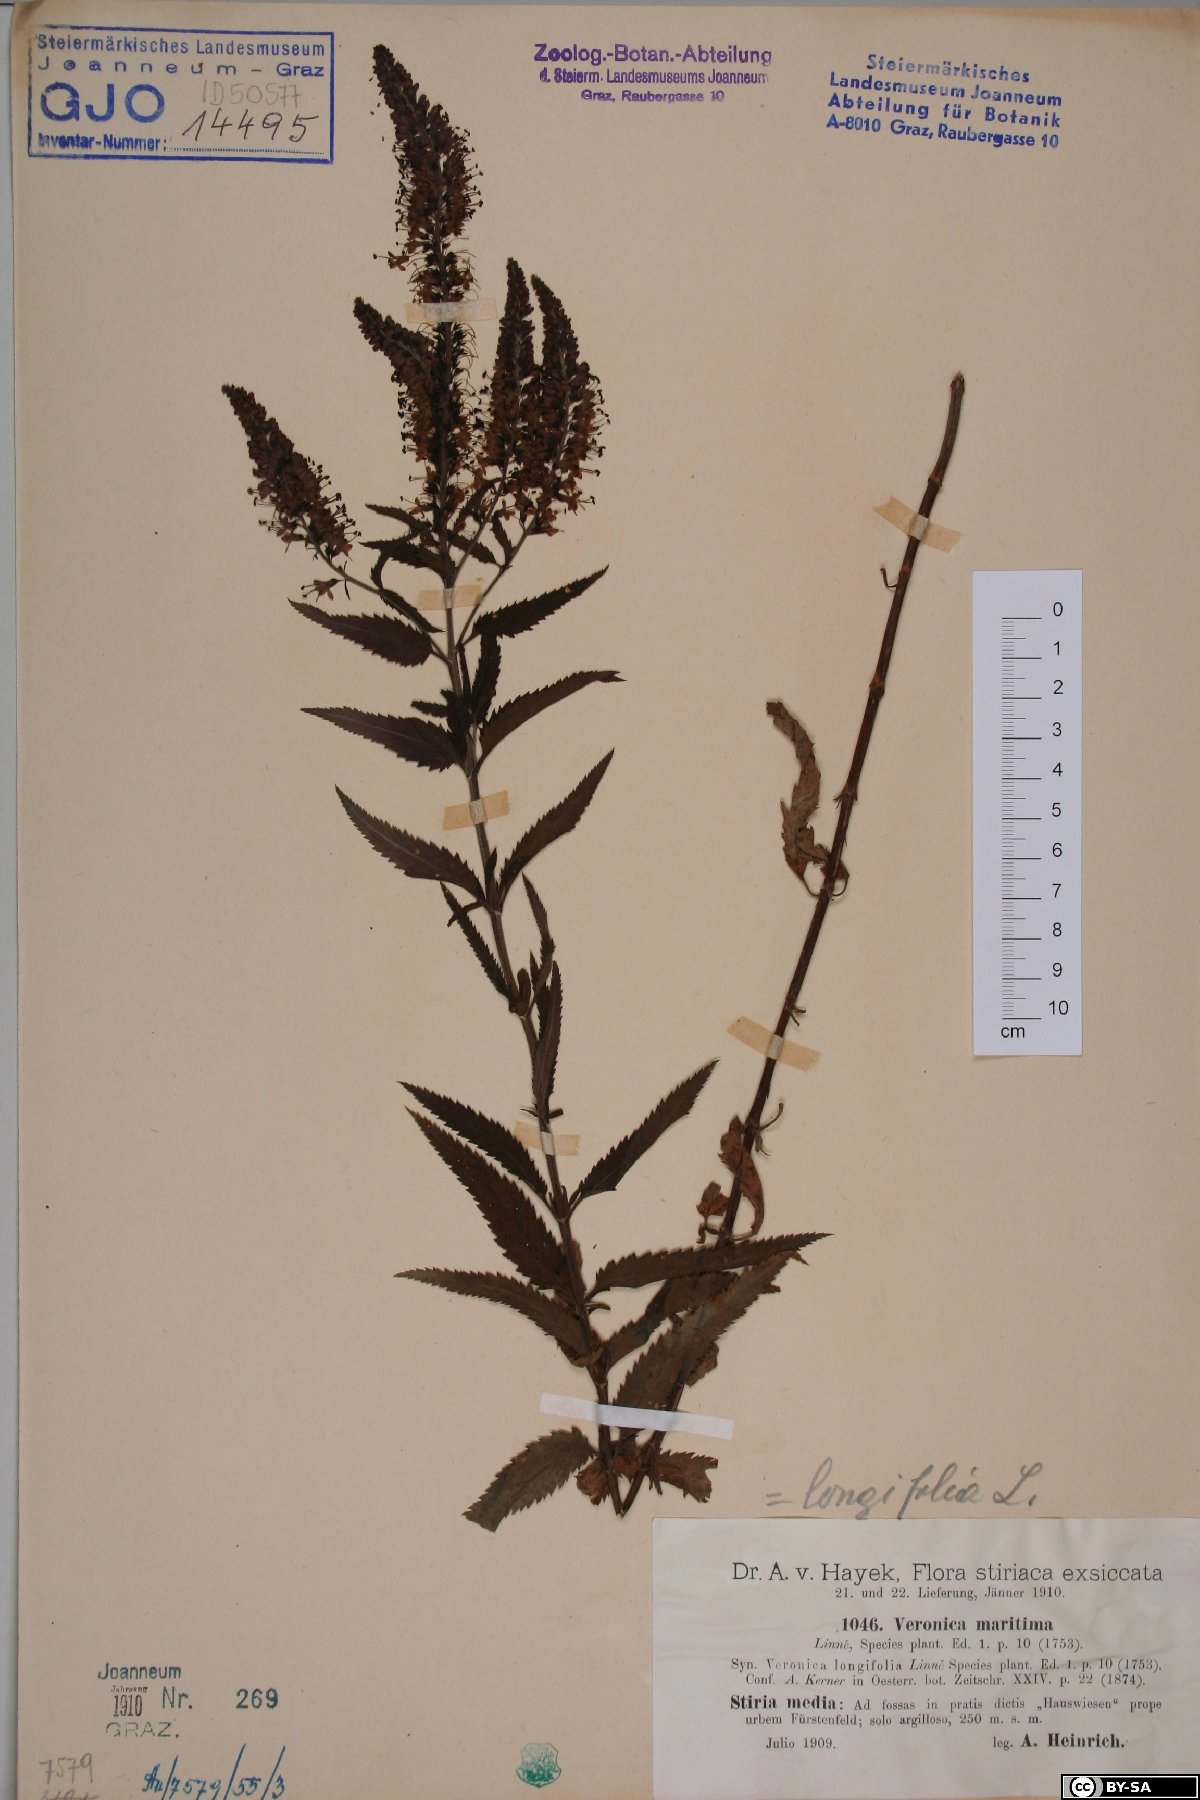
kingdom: Plantae
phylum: Tracheophyta
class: Magnoliopsida
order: Lamiales
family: Plantaginaceae
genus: Veronica
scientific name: Veronica maritima
